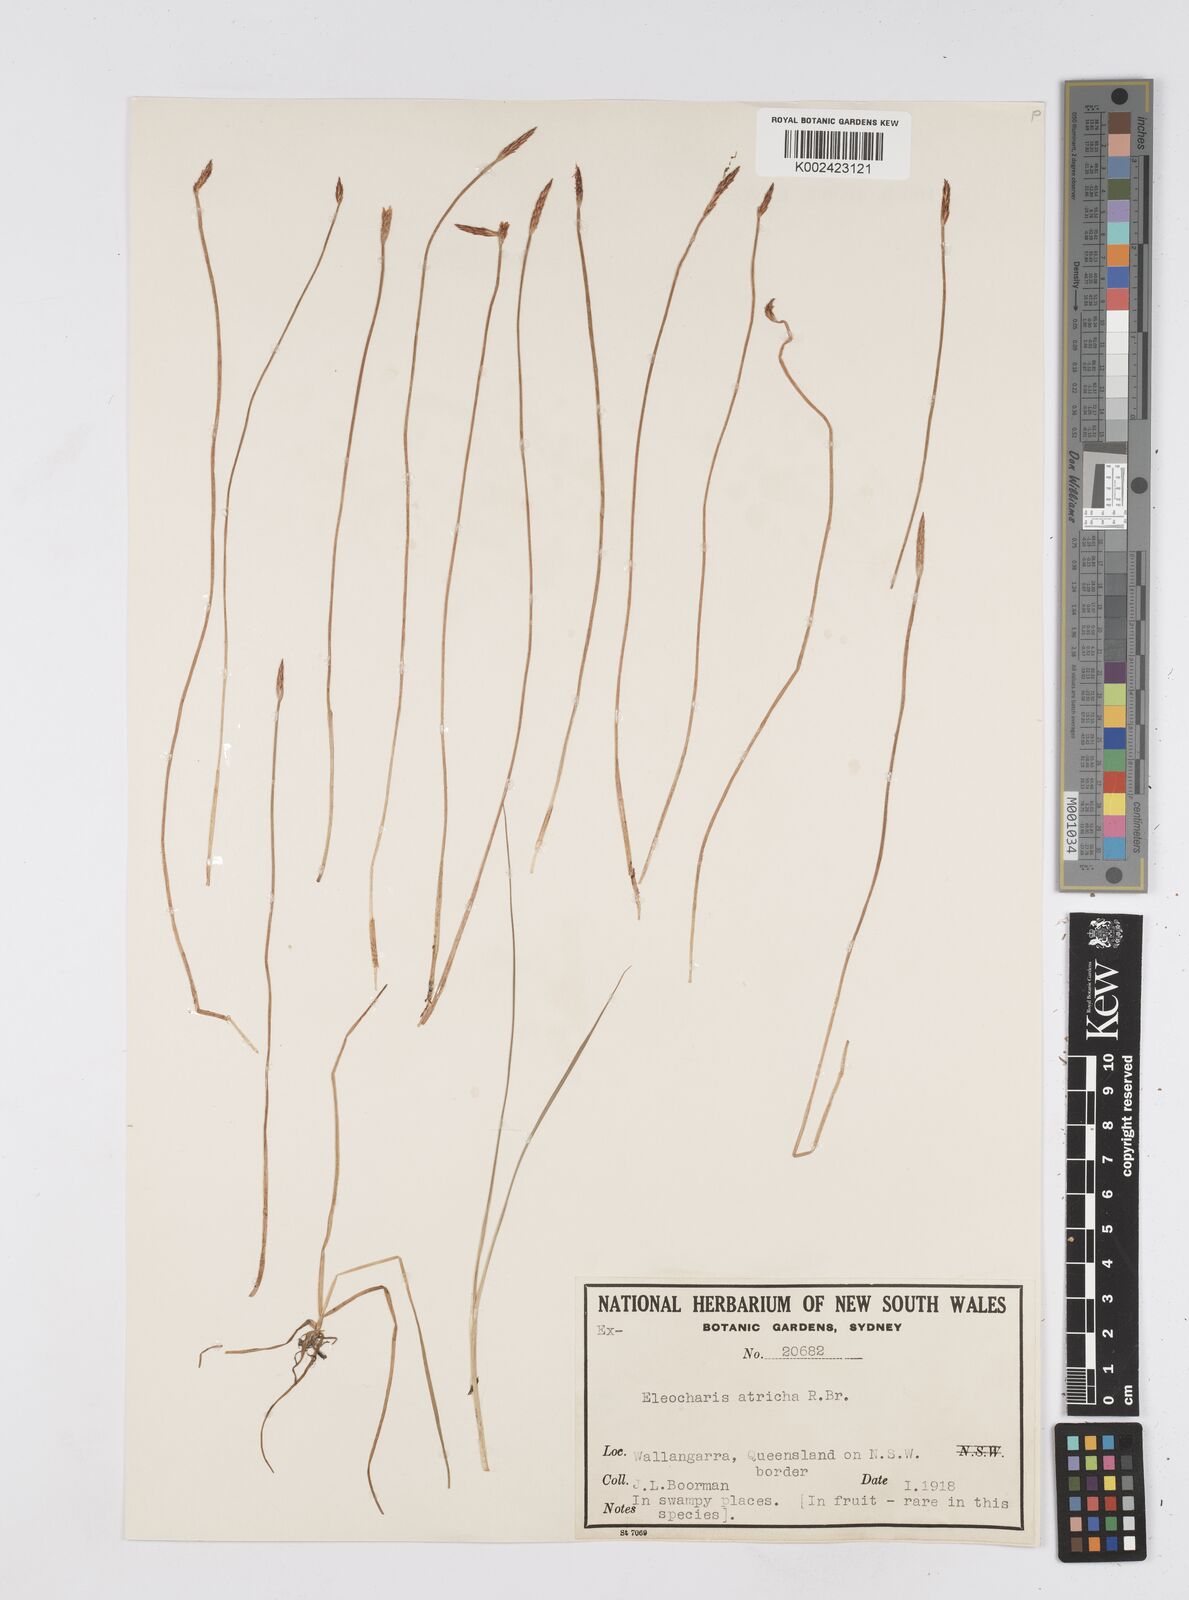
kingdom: Plantae
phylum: Tracheophyta
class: Liliopsida
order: Poales
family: Cyperaceae
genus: Eleocharis
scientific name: Eleocharis acicularis
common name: Needle spike-rush
